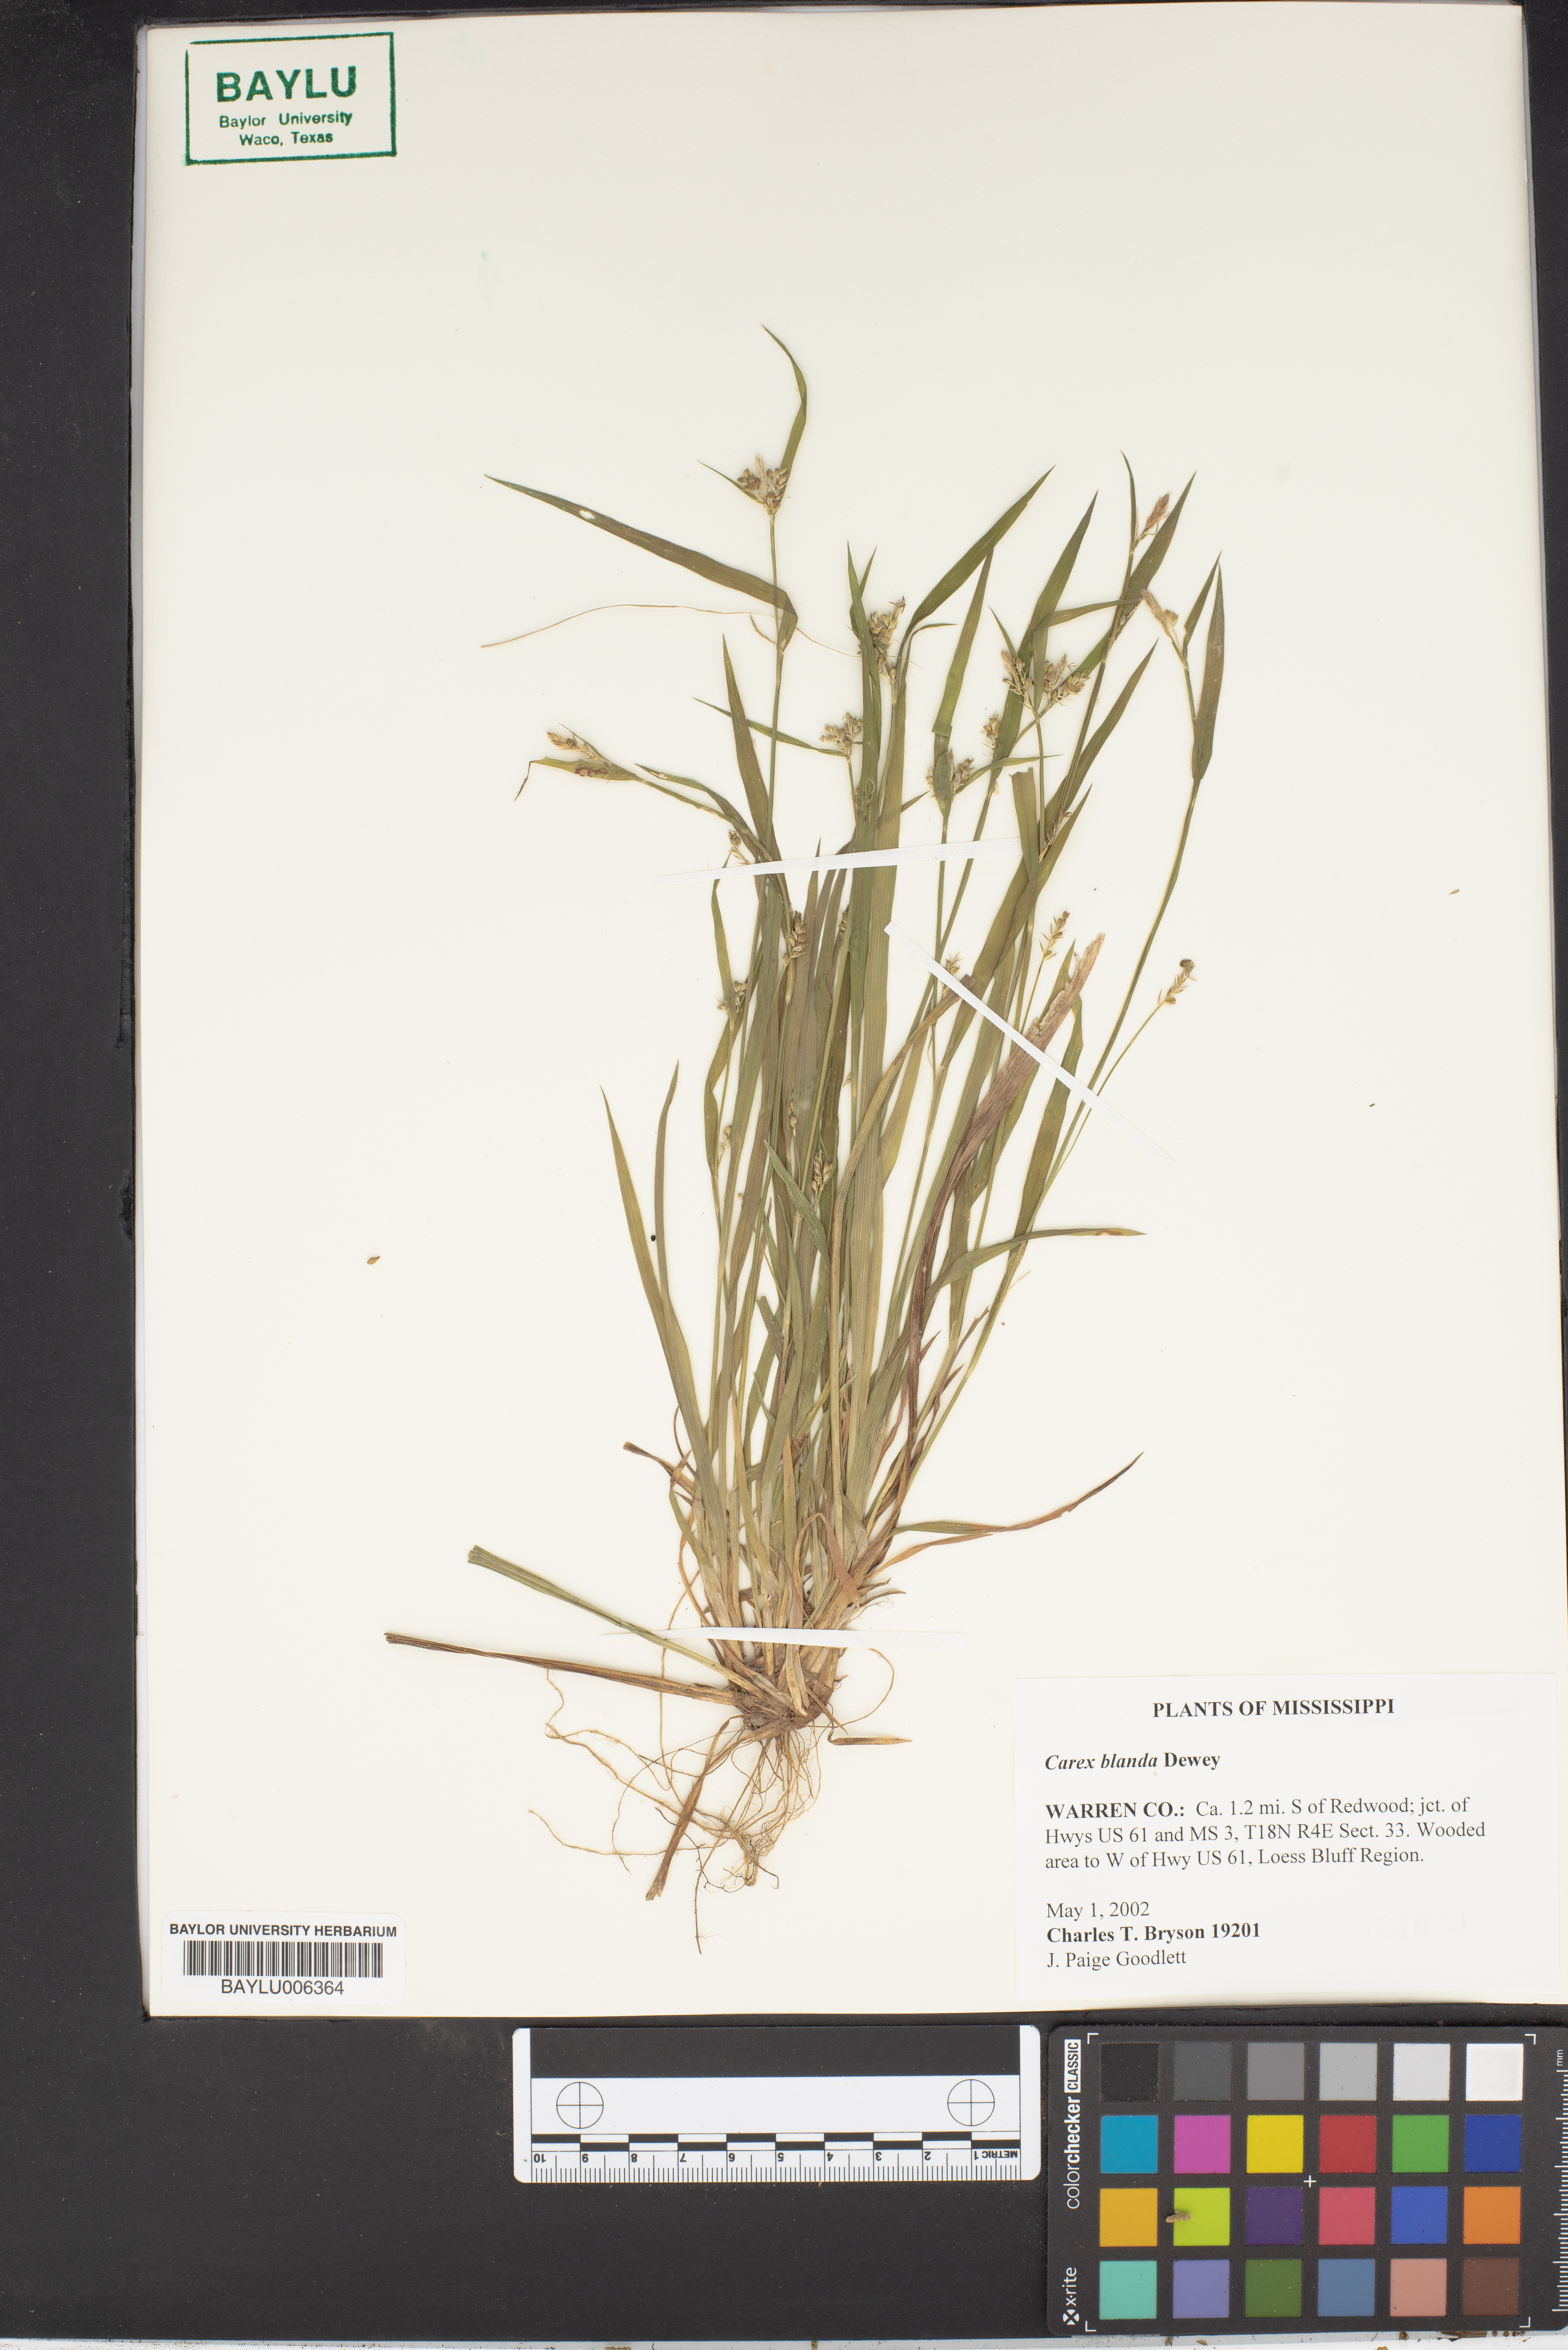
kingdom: Plantae
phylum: Tracheophyta
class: Liliopsida
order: Poales
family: Cyperaceae
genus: Carex
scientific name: Carex blanda
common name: Bland sedge
